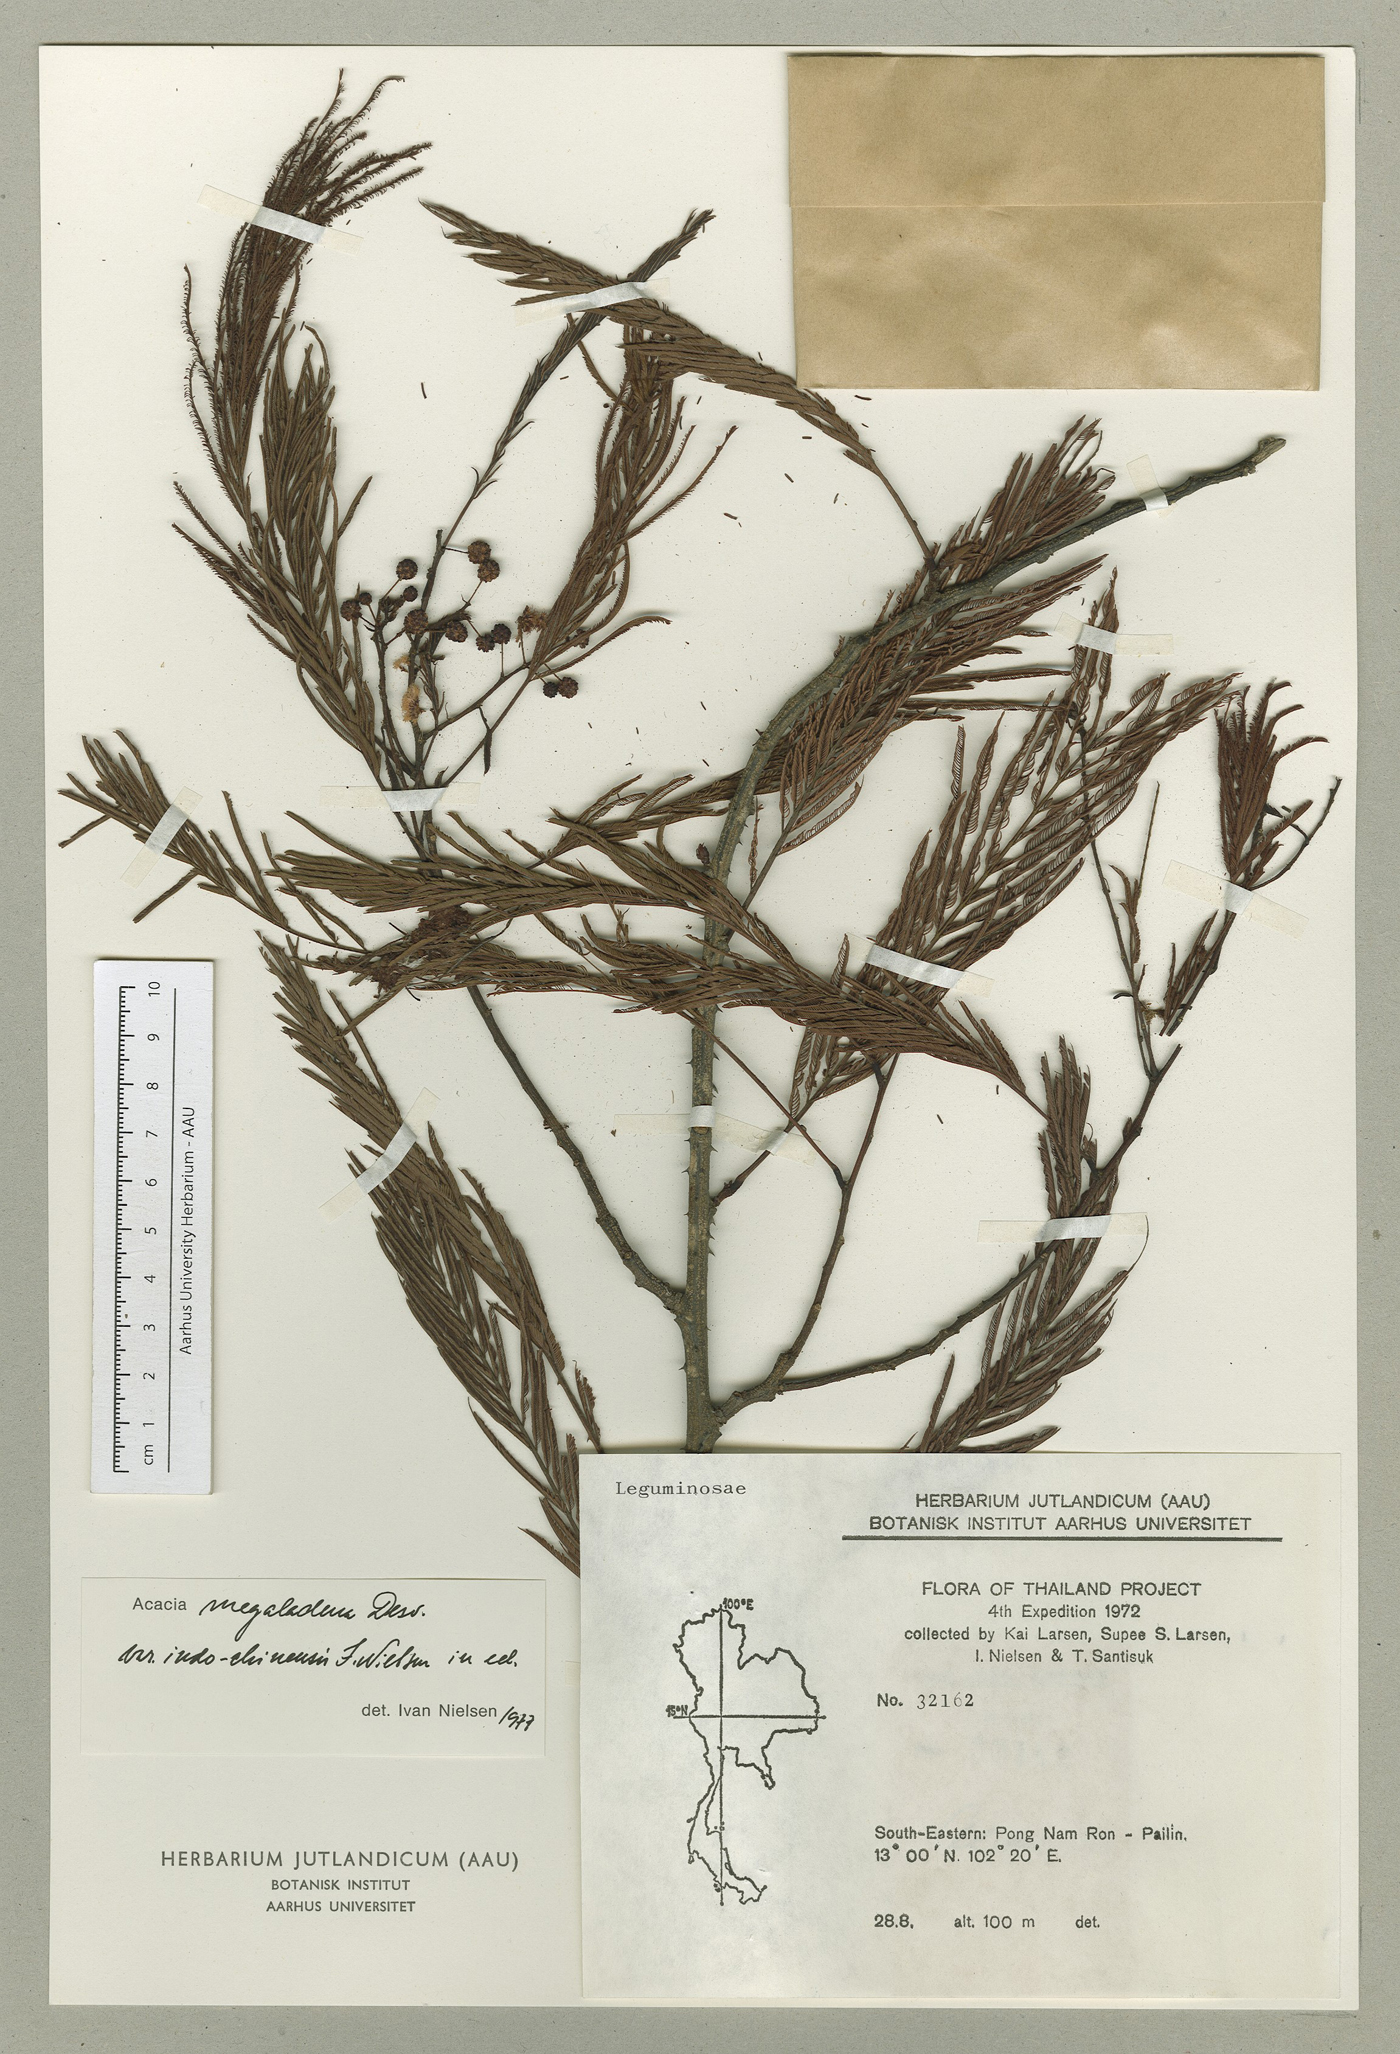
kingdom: Plantae
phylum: Tracheophyta
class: Magnoliopsida
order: Fabales
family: Fabaceae
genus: Senegalia
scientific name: Senegalia megaladena
